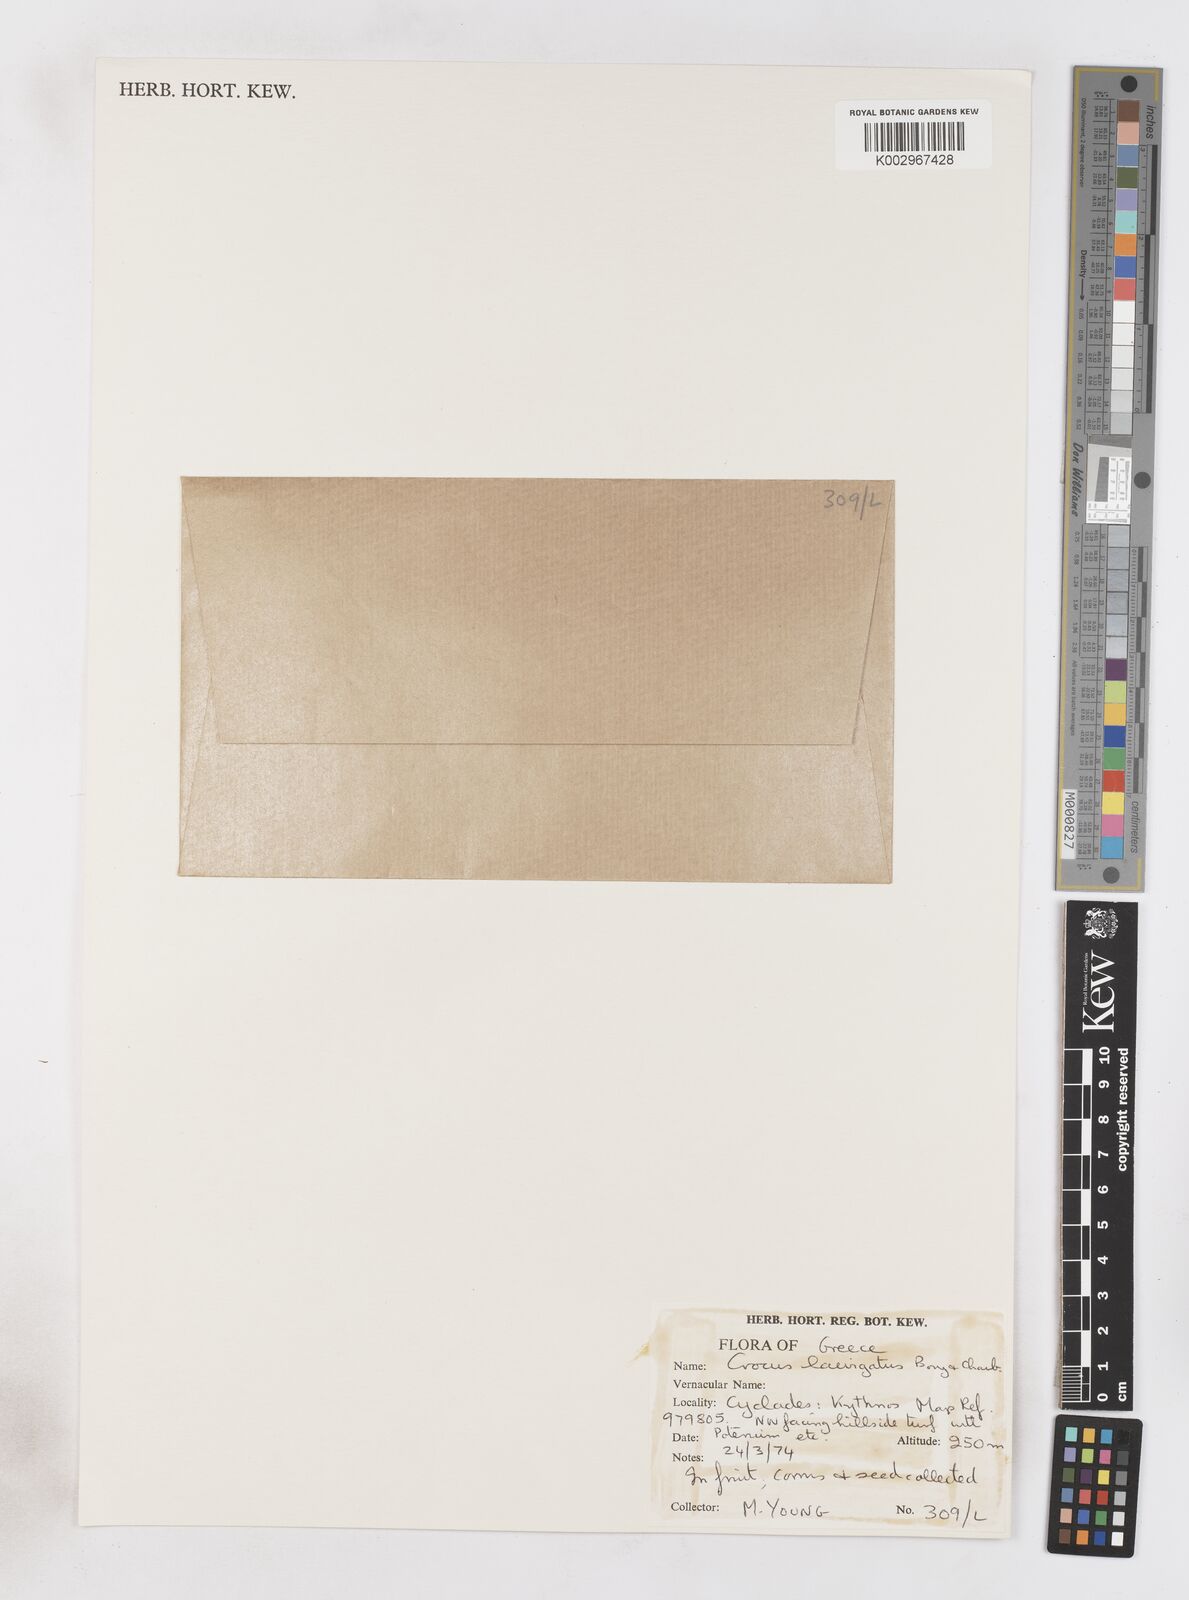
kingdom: Plantae
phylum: Tracheophyta
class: Liliopsida
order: Asparagales
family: Iridaceae
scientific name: Iridaceae
